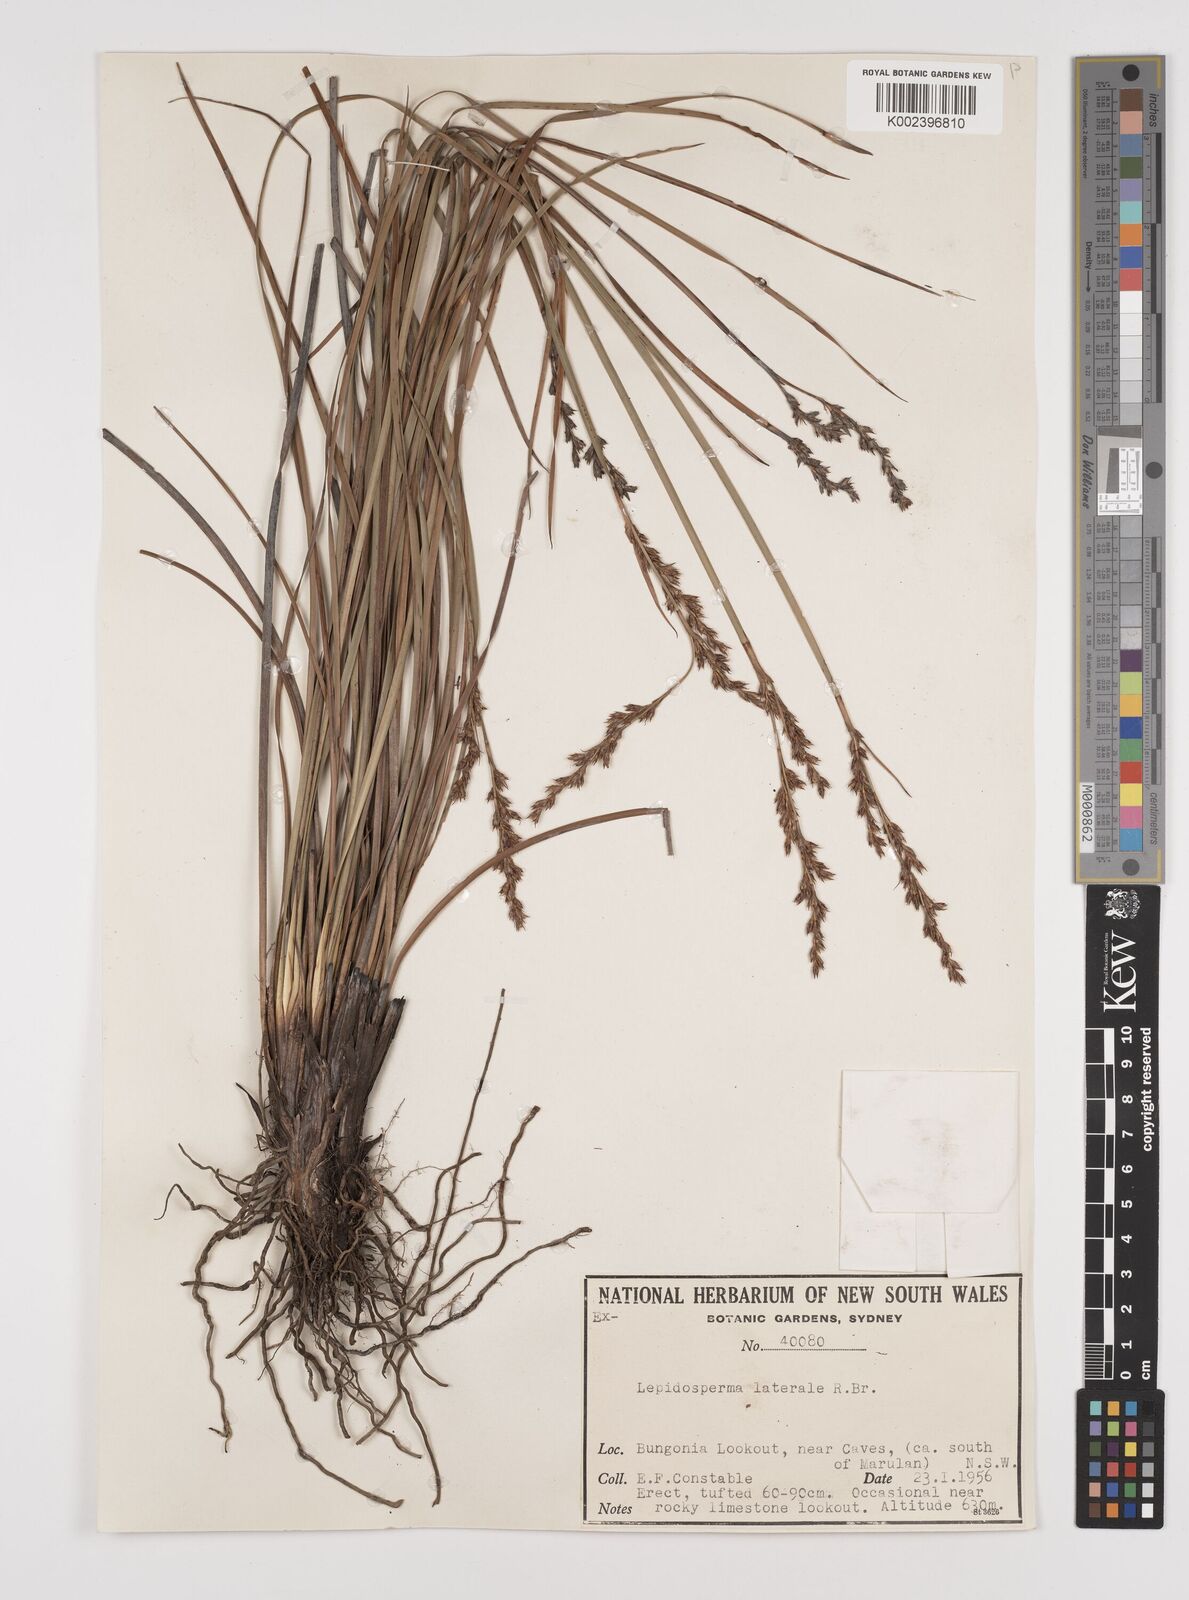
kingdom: Plantae
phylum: Tracheophyta
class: Liliopsida
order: Poales
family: Cyperaceae
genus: Lepidosperma
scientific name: Lepidosperma laterale
